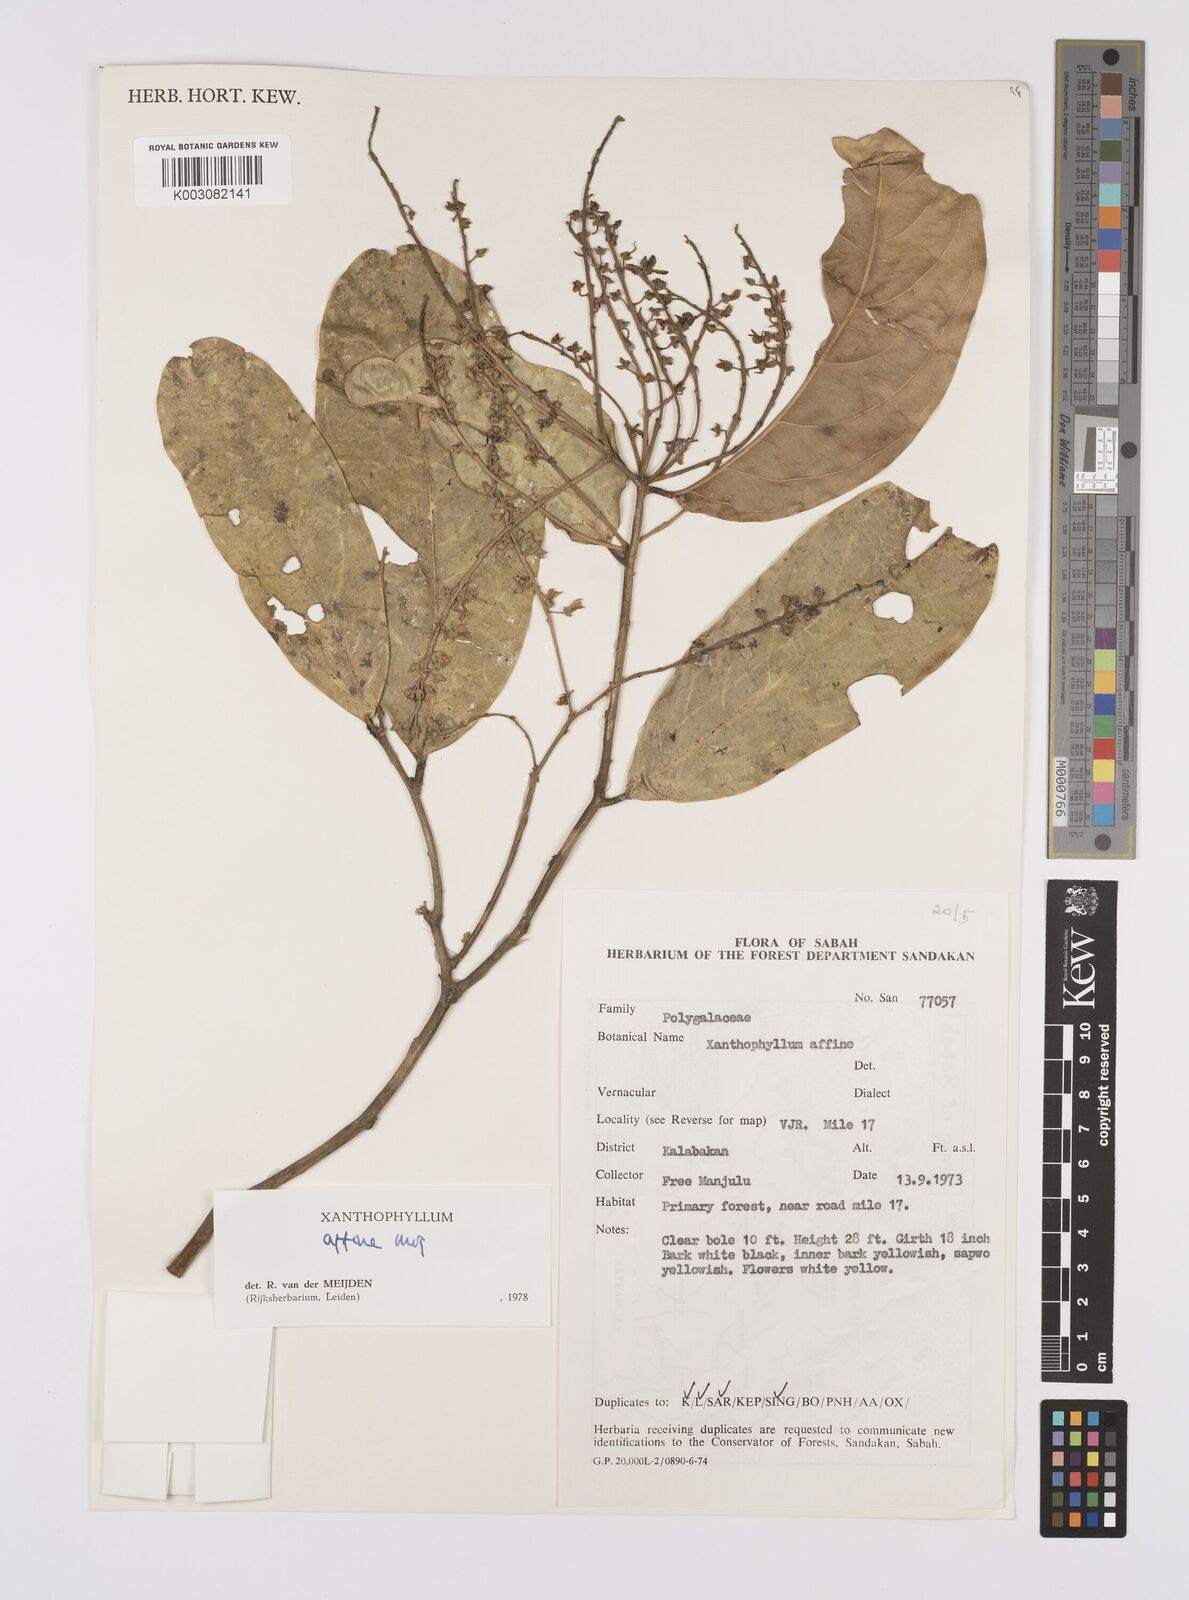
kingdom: Plantae
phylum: Tracheophyta
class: Magnoliopsida
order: Fabales
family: Polygalaceae
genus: Xanthophyllum
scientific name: Xanthophyllum flavescens
